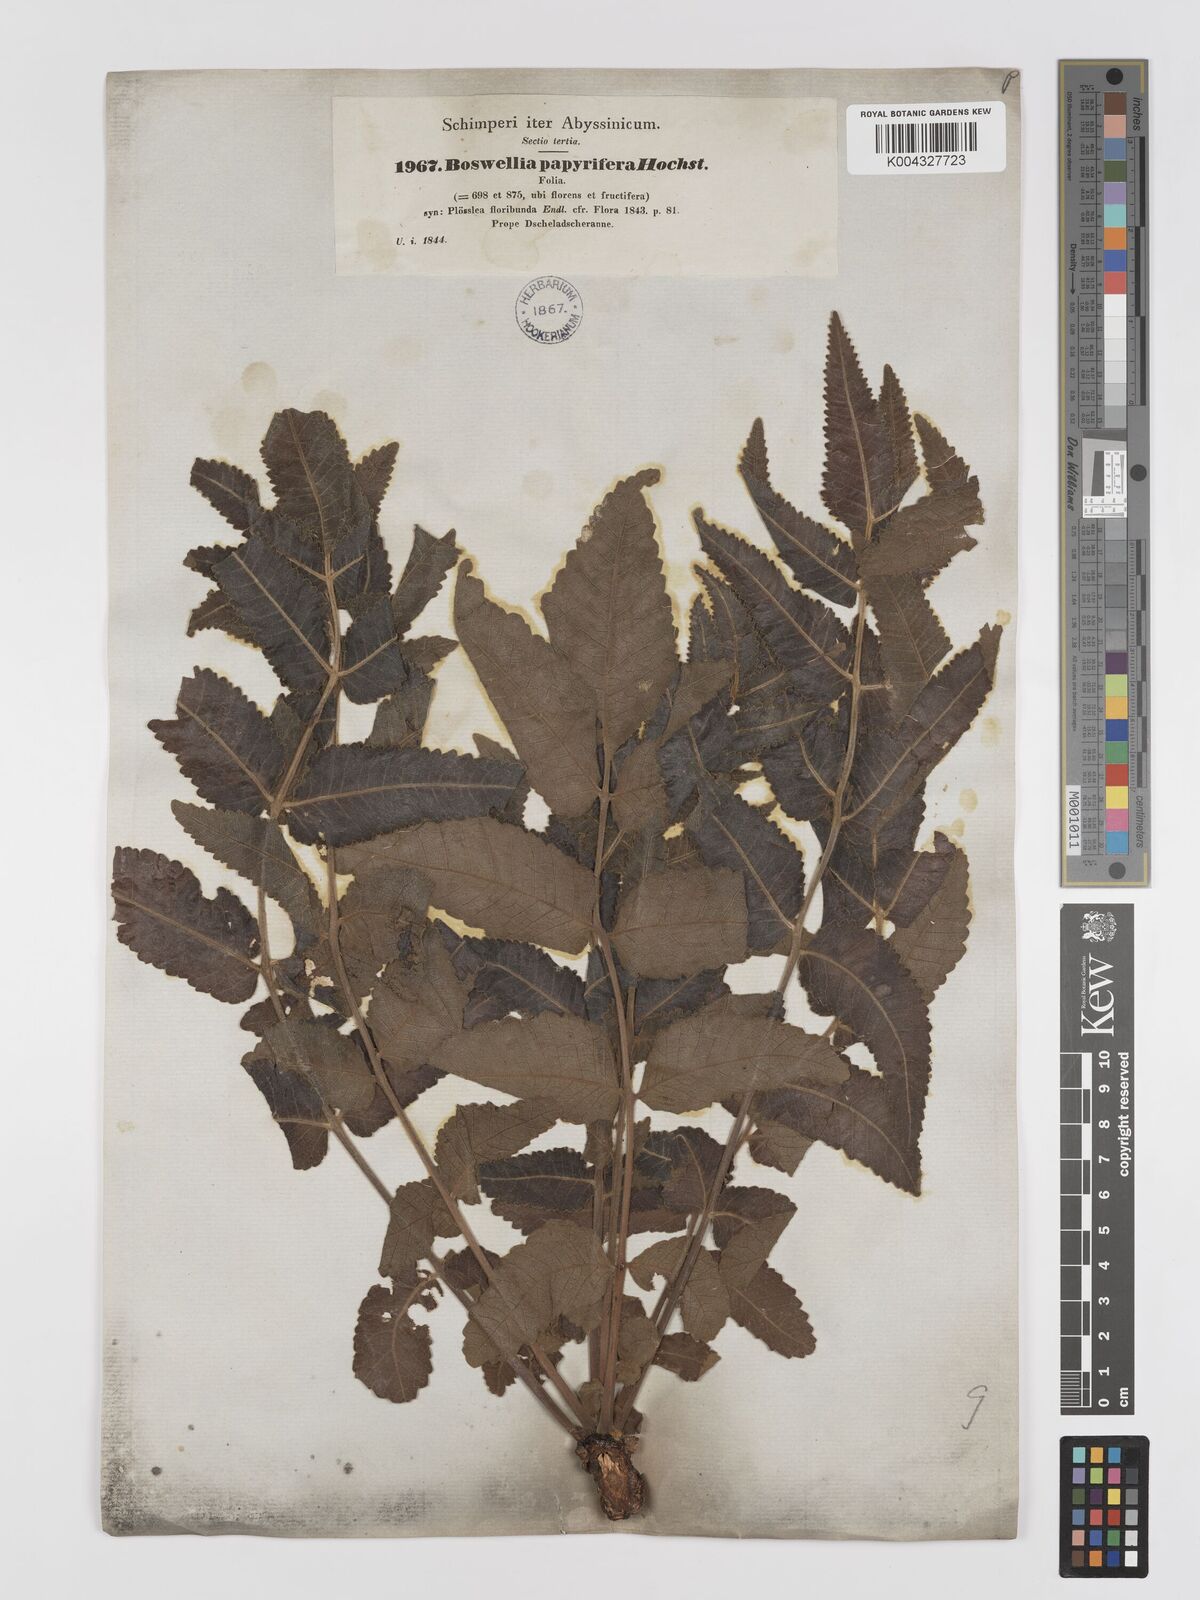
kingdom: Plantae
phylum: Tracheophyta
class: Magnoliopsida
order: Sapindales
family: Burseraceae
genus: Boswellia
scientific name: Boswellia papyrifera
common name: Sudanese frankincense
